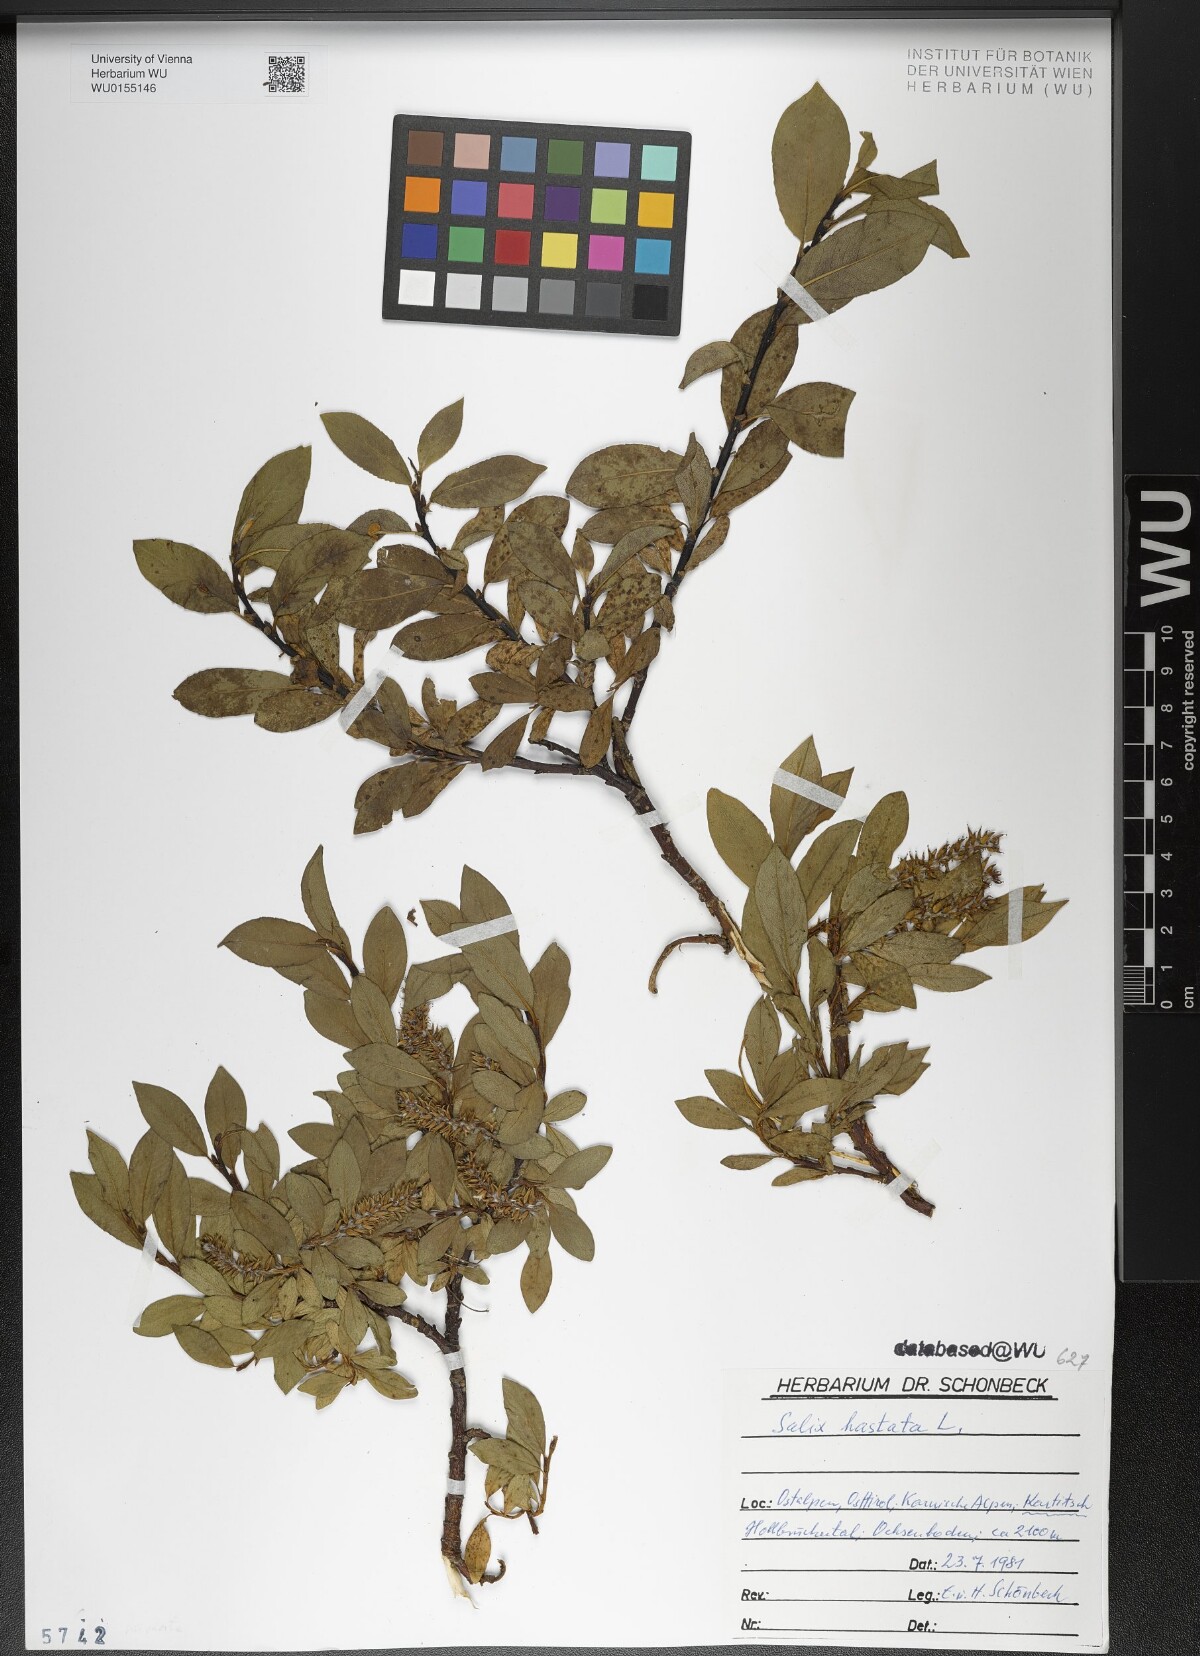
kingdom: Plantae
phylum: Tracheophyta
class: Magnoliopsida
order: Malpighiales
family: Salicaceae
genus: Salix
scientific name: Salix hastata
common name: Halberd willow
